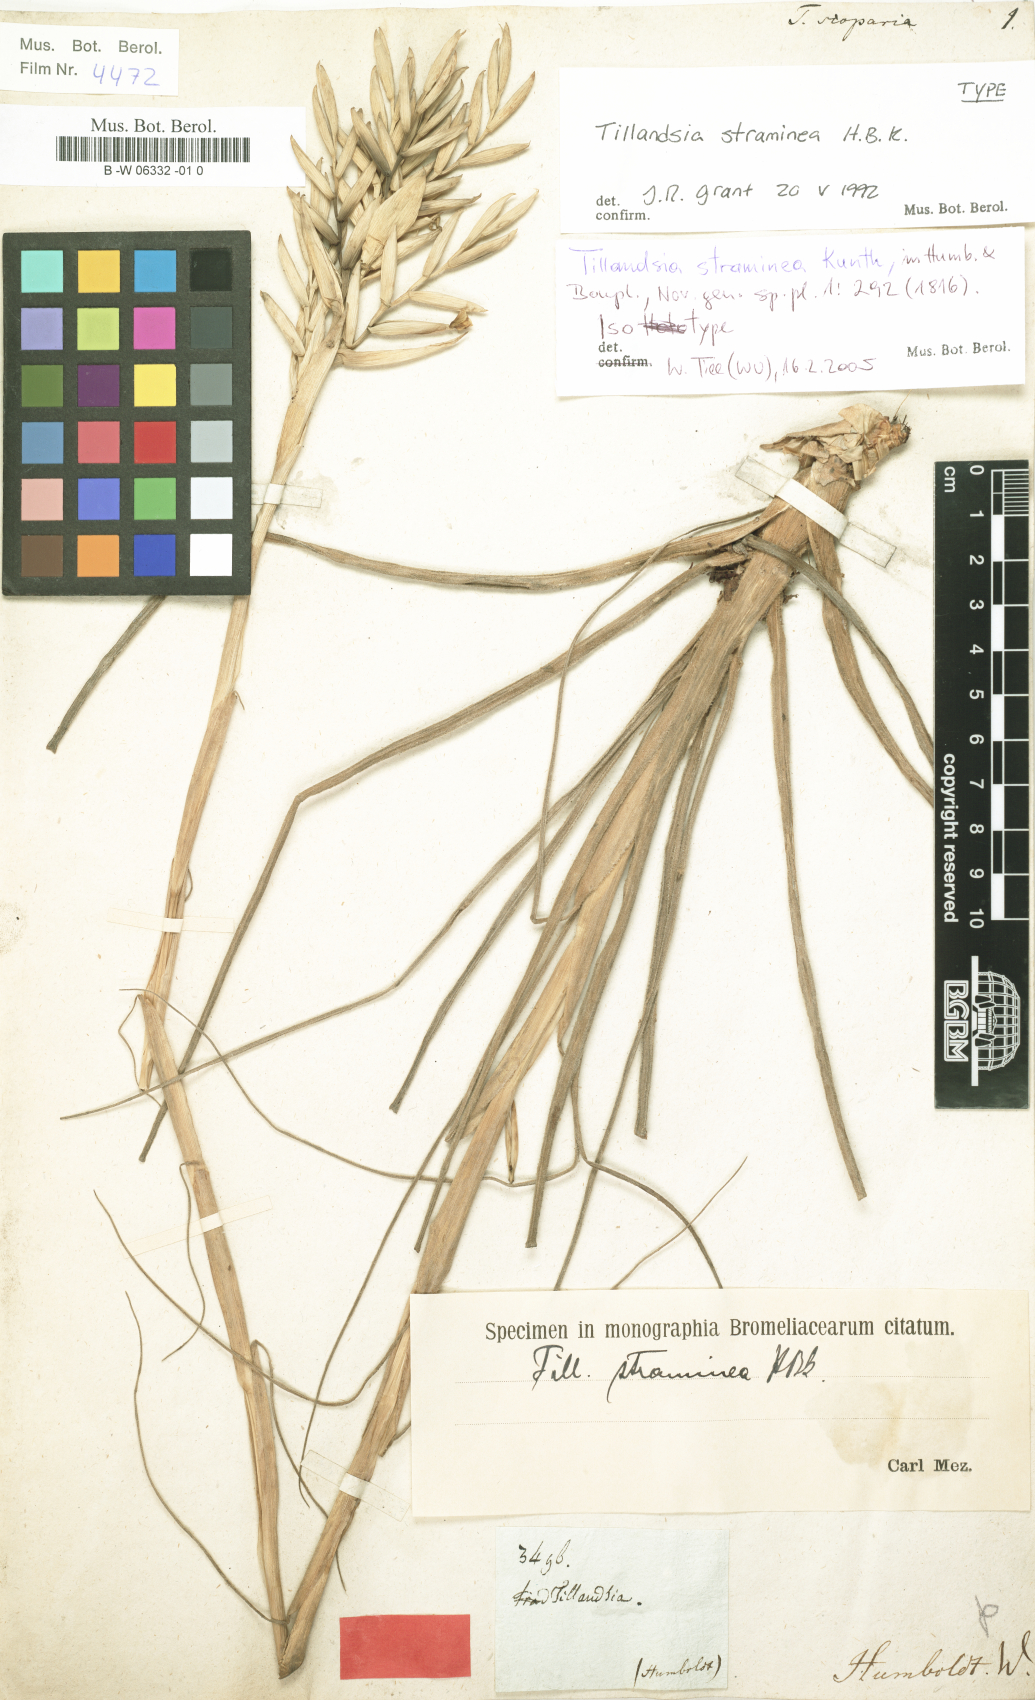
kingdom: Plantae
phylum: Tracheophyta
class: Liliopsida
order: Poales
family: Bromeliaceae
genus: Tillandsia
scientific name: Tillandsia purpurea
